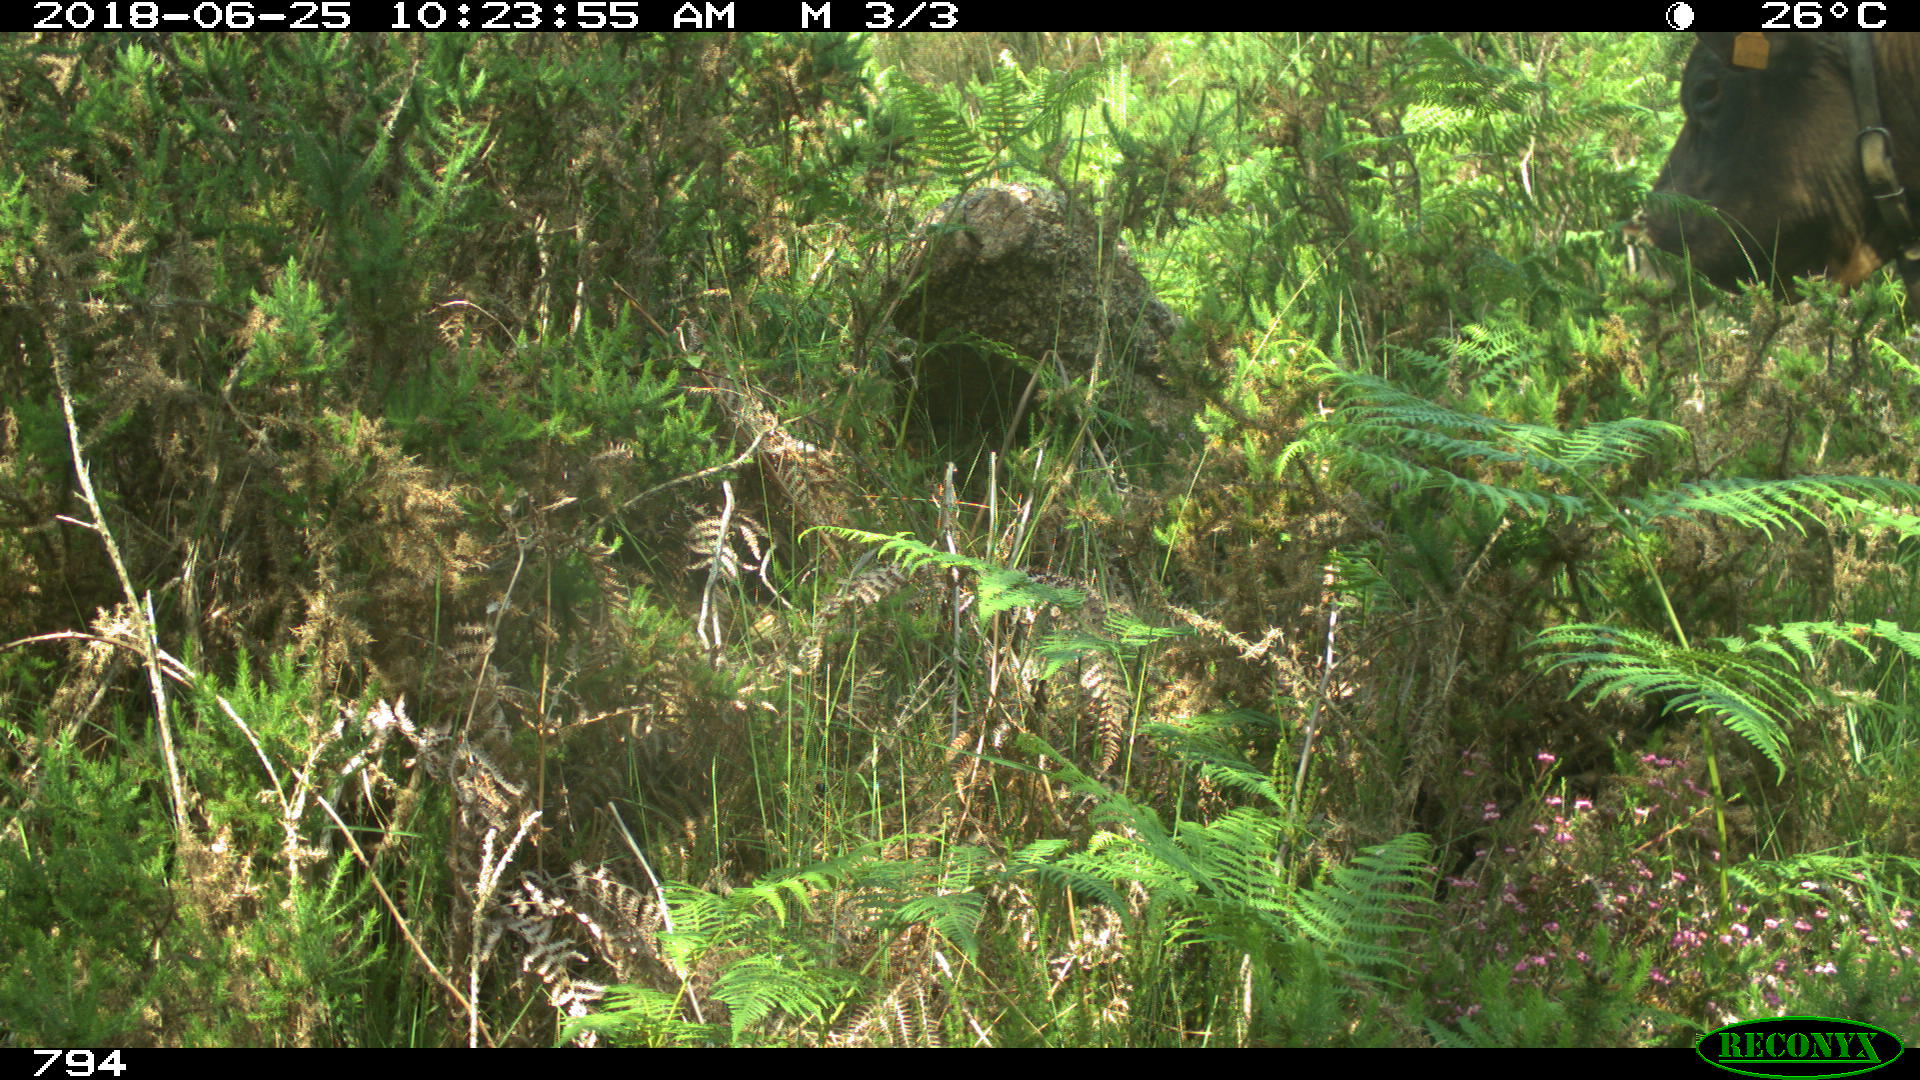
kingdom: Animalia
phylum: Chordata
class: Mammalia
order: Artiodactyla
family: Bovidae
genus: Bos
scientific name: Bos taurus
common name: Domesticated cattle
